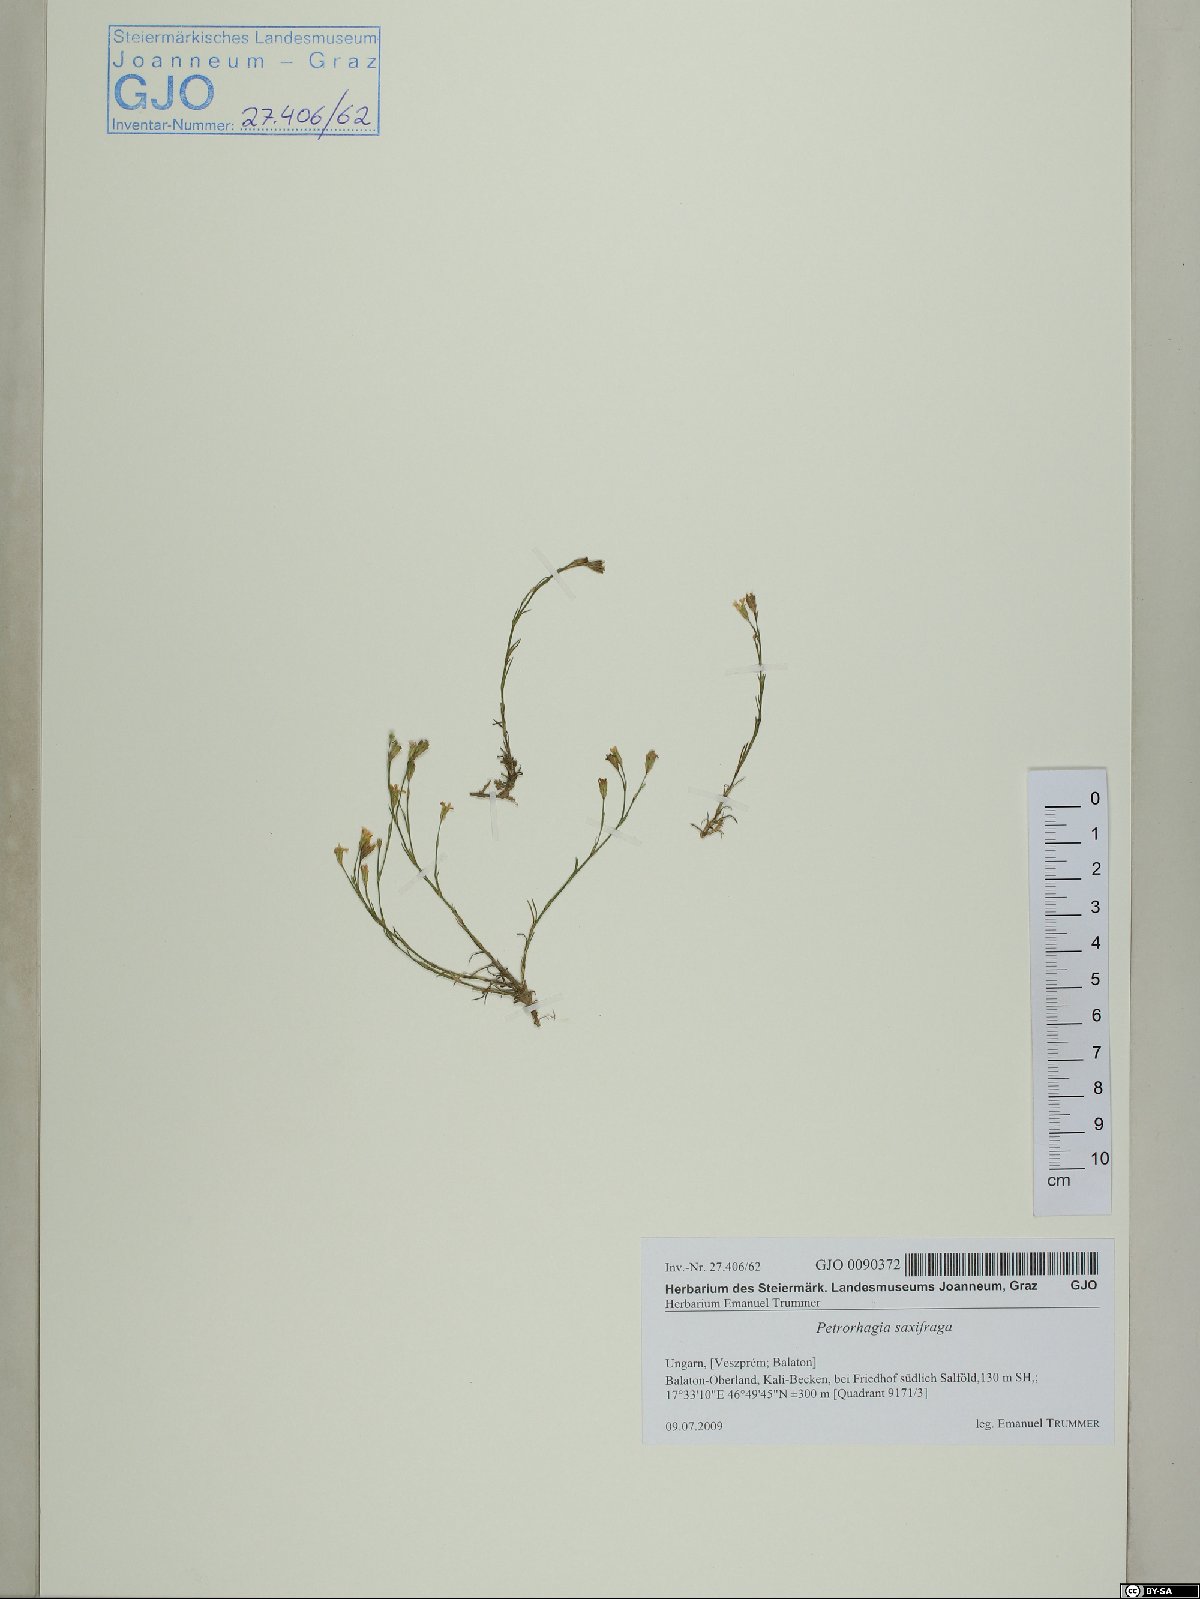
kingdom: Plantae
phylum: Tracheophyta
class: Magnoliopsida
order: Caryophyllales
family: Caryophyllaceae
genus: Petrorhagia
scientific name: Petrorhagia saxifraga
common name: Tunicflower
